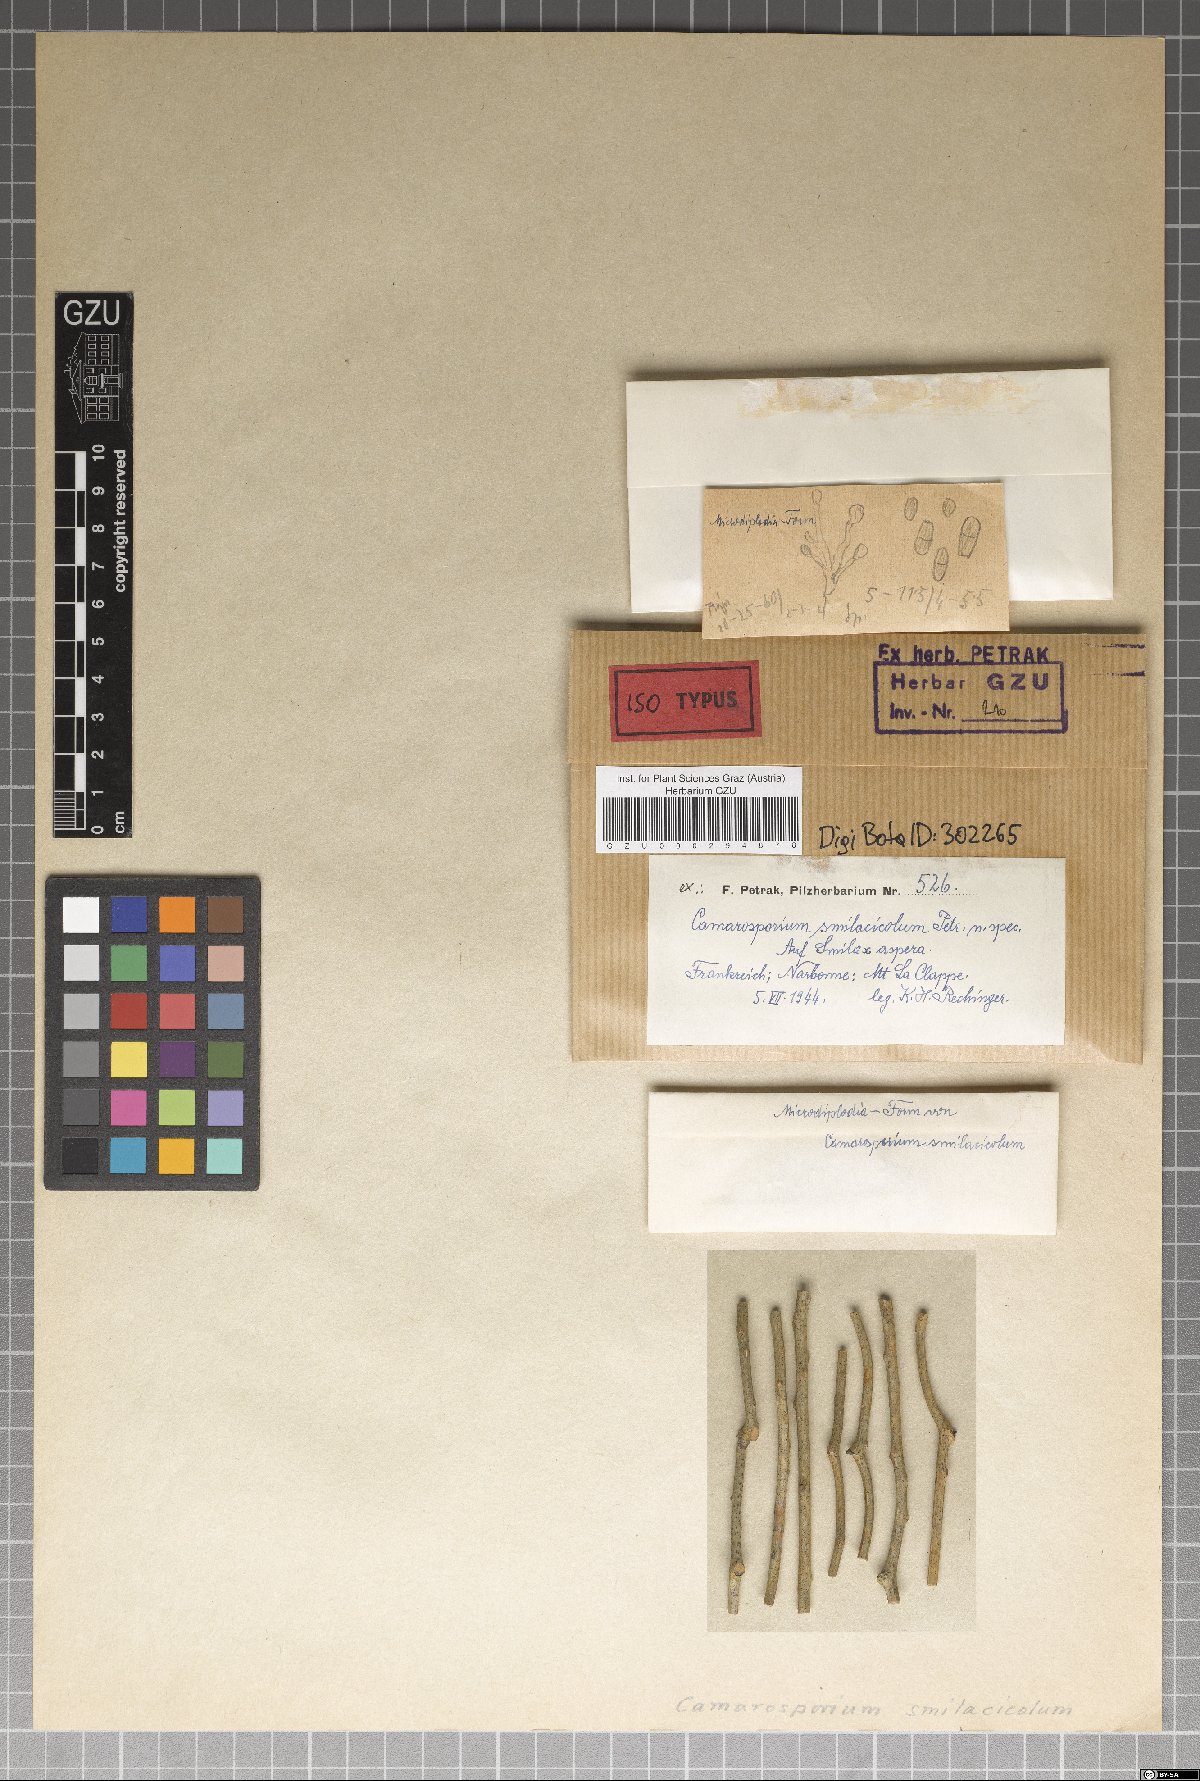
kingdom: Fungi
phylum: Ascomycota
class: Dothideomycetes
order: Pleosporales
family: Camarosporiaceae
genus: Camarosporium
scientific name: Camarosporium smilacicola
